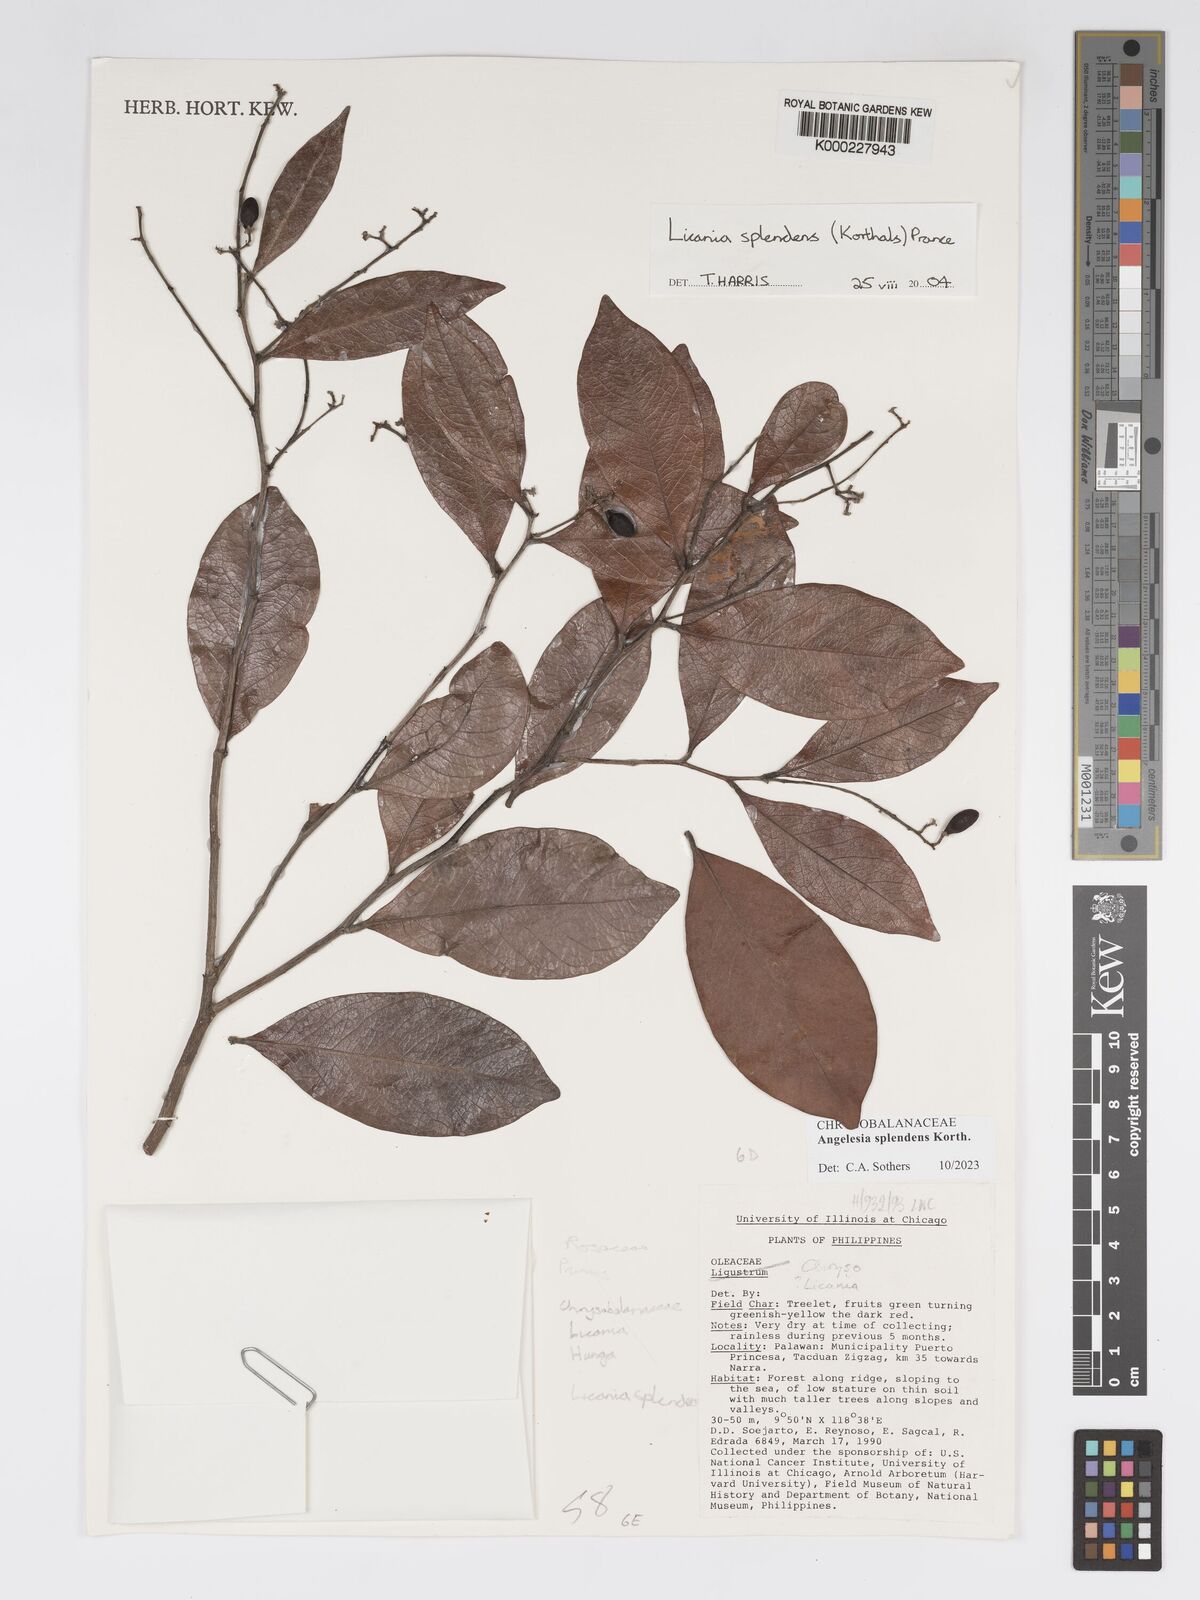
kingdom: Plantae
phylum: Tracheophyta
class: Magnoliopsida
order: Malpighiales
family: Chrysobalanaceae
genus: Angelesia
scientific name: Angelesia splendens
